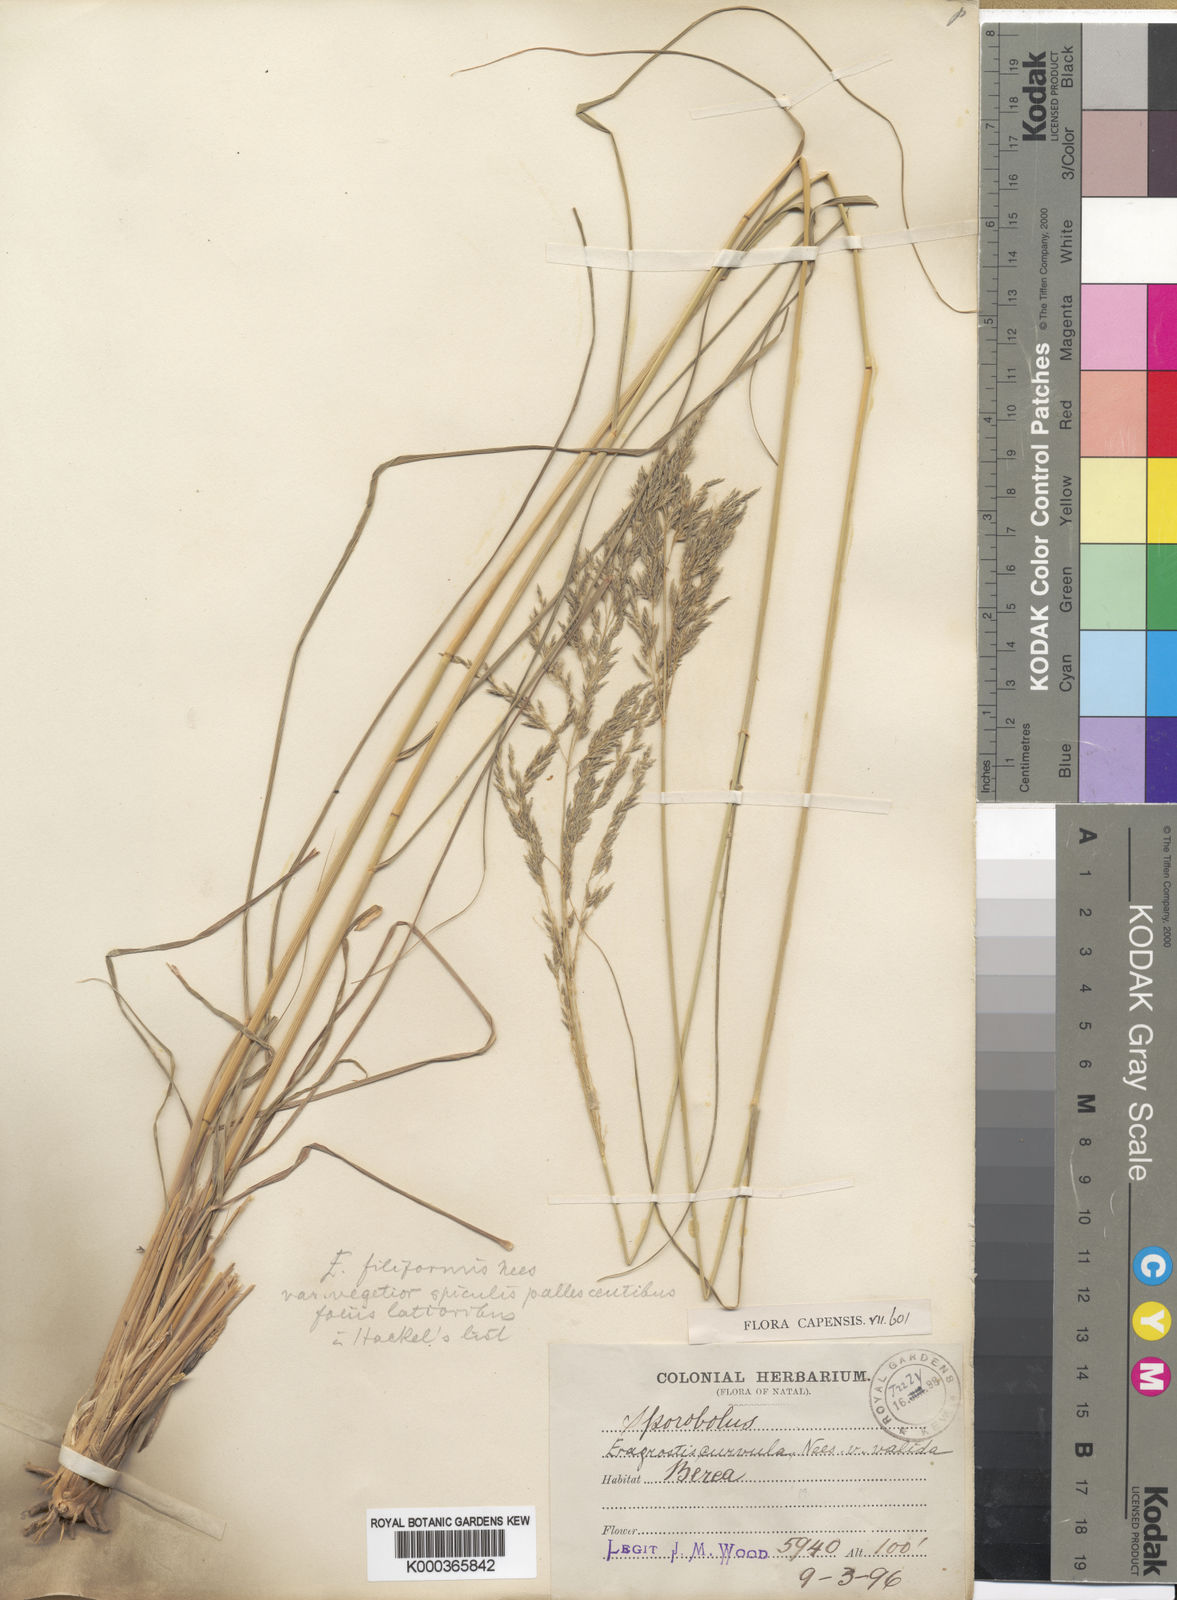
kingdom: Plantae
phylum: Tracheophyta
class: Liliopsida
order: Poales
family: Poaceae
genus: Eragrostis
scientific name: Eragrostis curvula
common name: African love-grass
